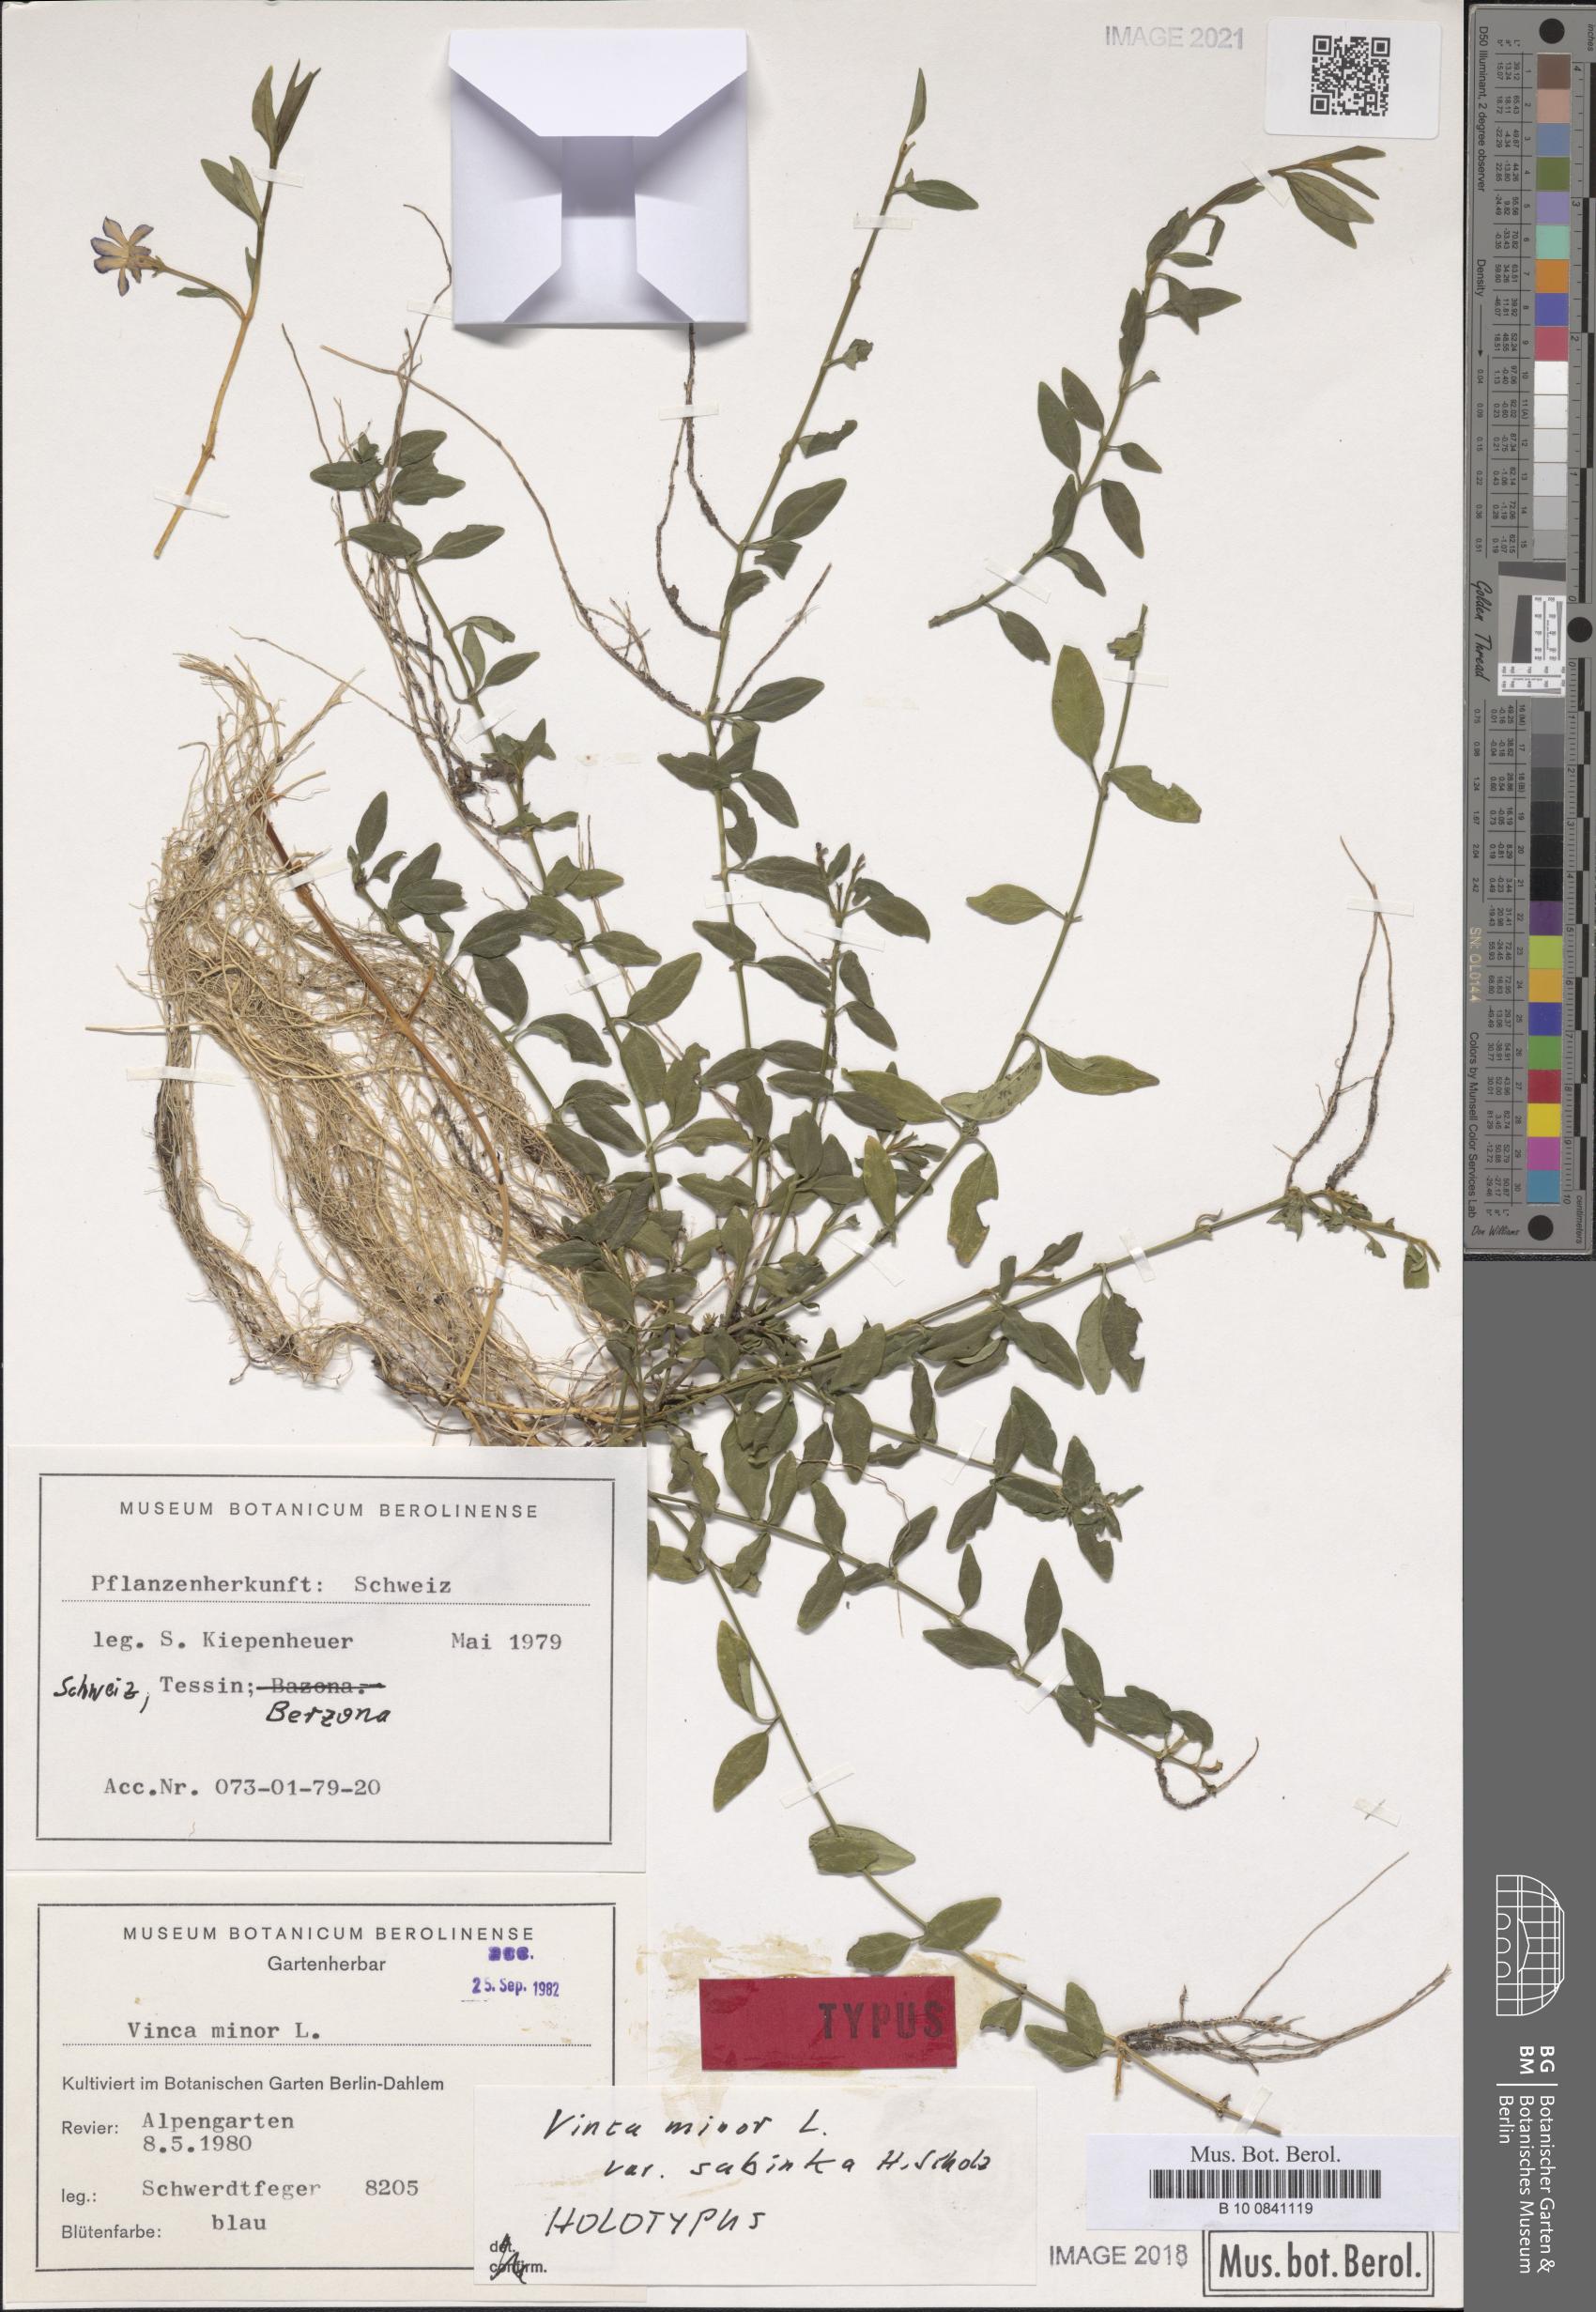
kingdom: Plantae
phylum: Tracheophyta
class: Magnoliopsida
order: Gentianales
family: Apocynaceae
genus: Vinca
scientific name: Vinca minor
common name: Lesser periwinkle
